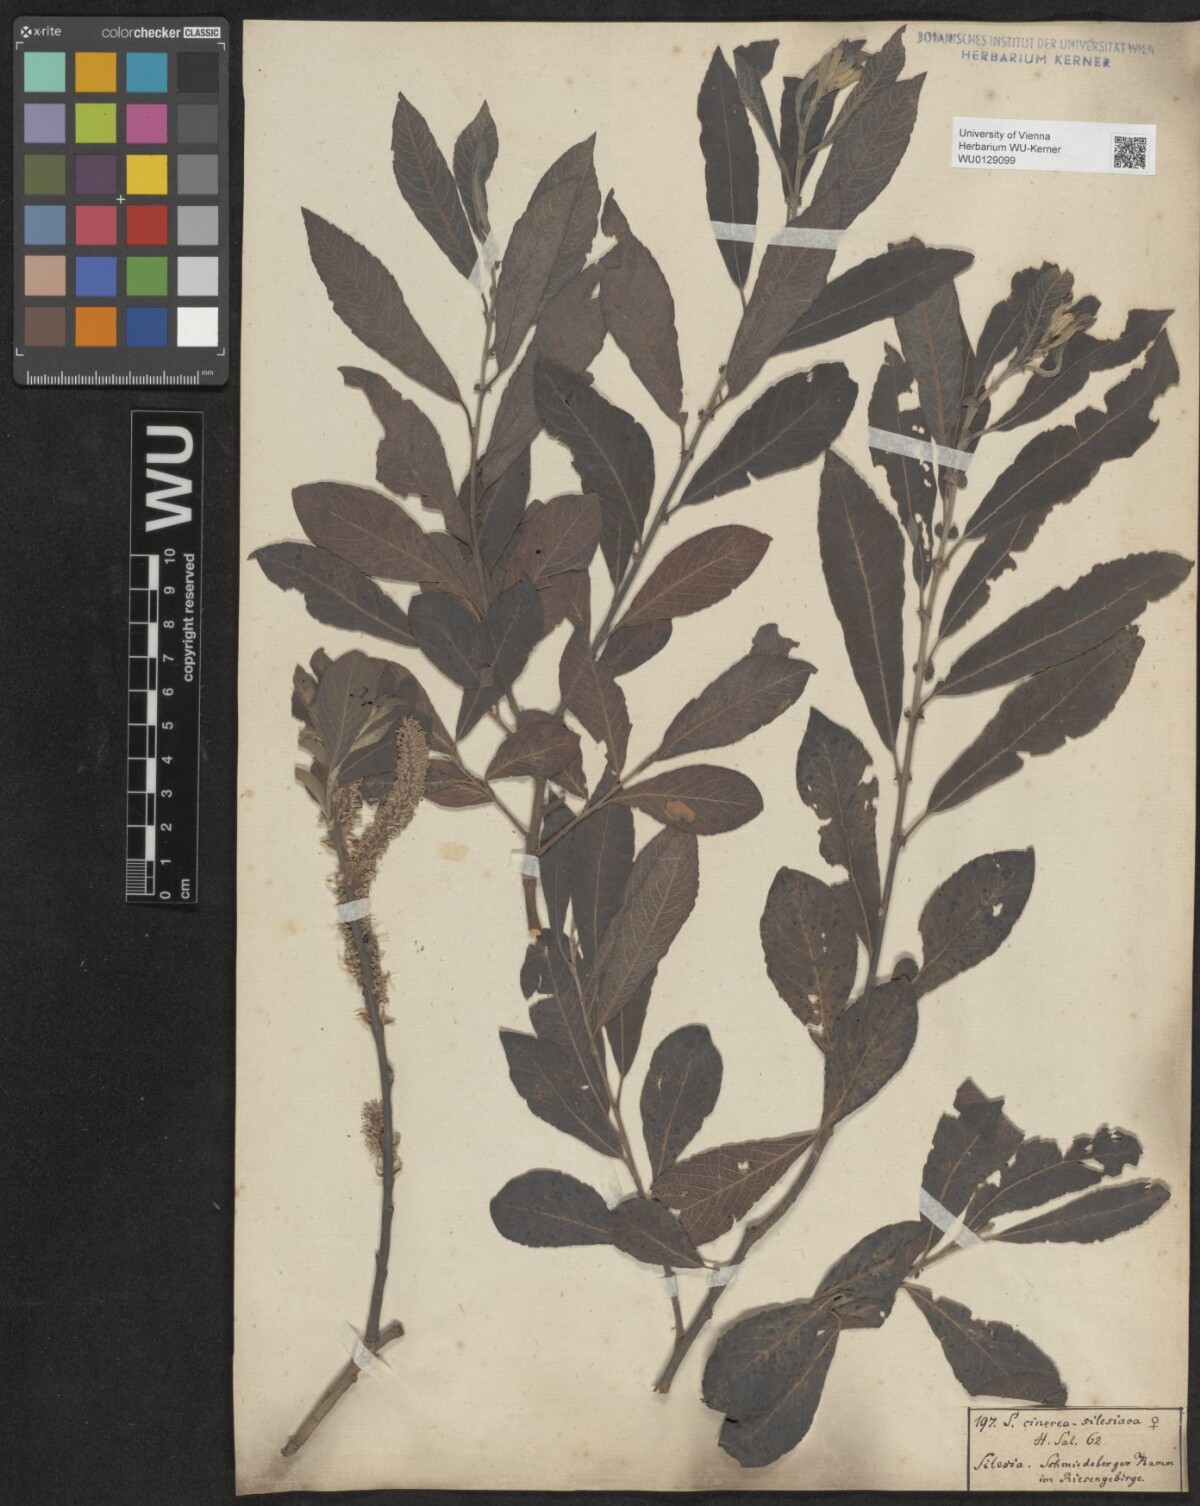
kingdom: Plantae
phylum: Tracheophyta
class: Magnoliopsida
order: Malpighiales
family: Salicaceae
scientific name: Salicaceae
